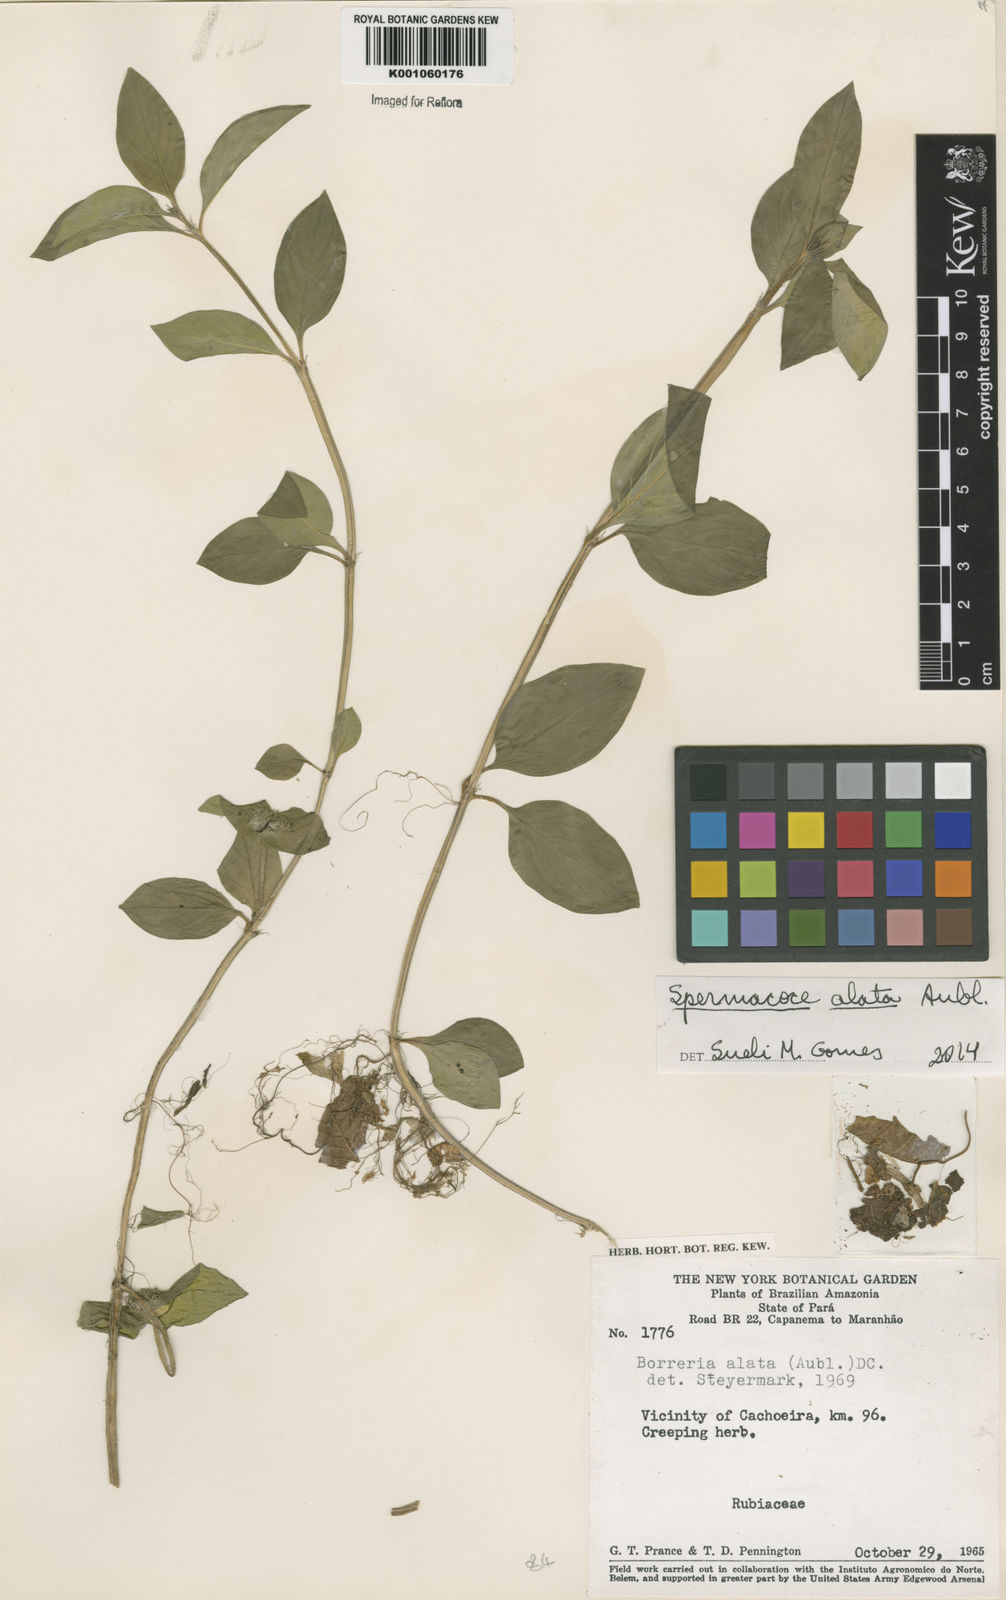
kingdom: Plantae
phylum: Tracheophyta
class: Magnoliopsida
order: Gentianales
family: Rubiaceae
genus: Spermacoce
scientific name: Spermacoce
